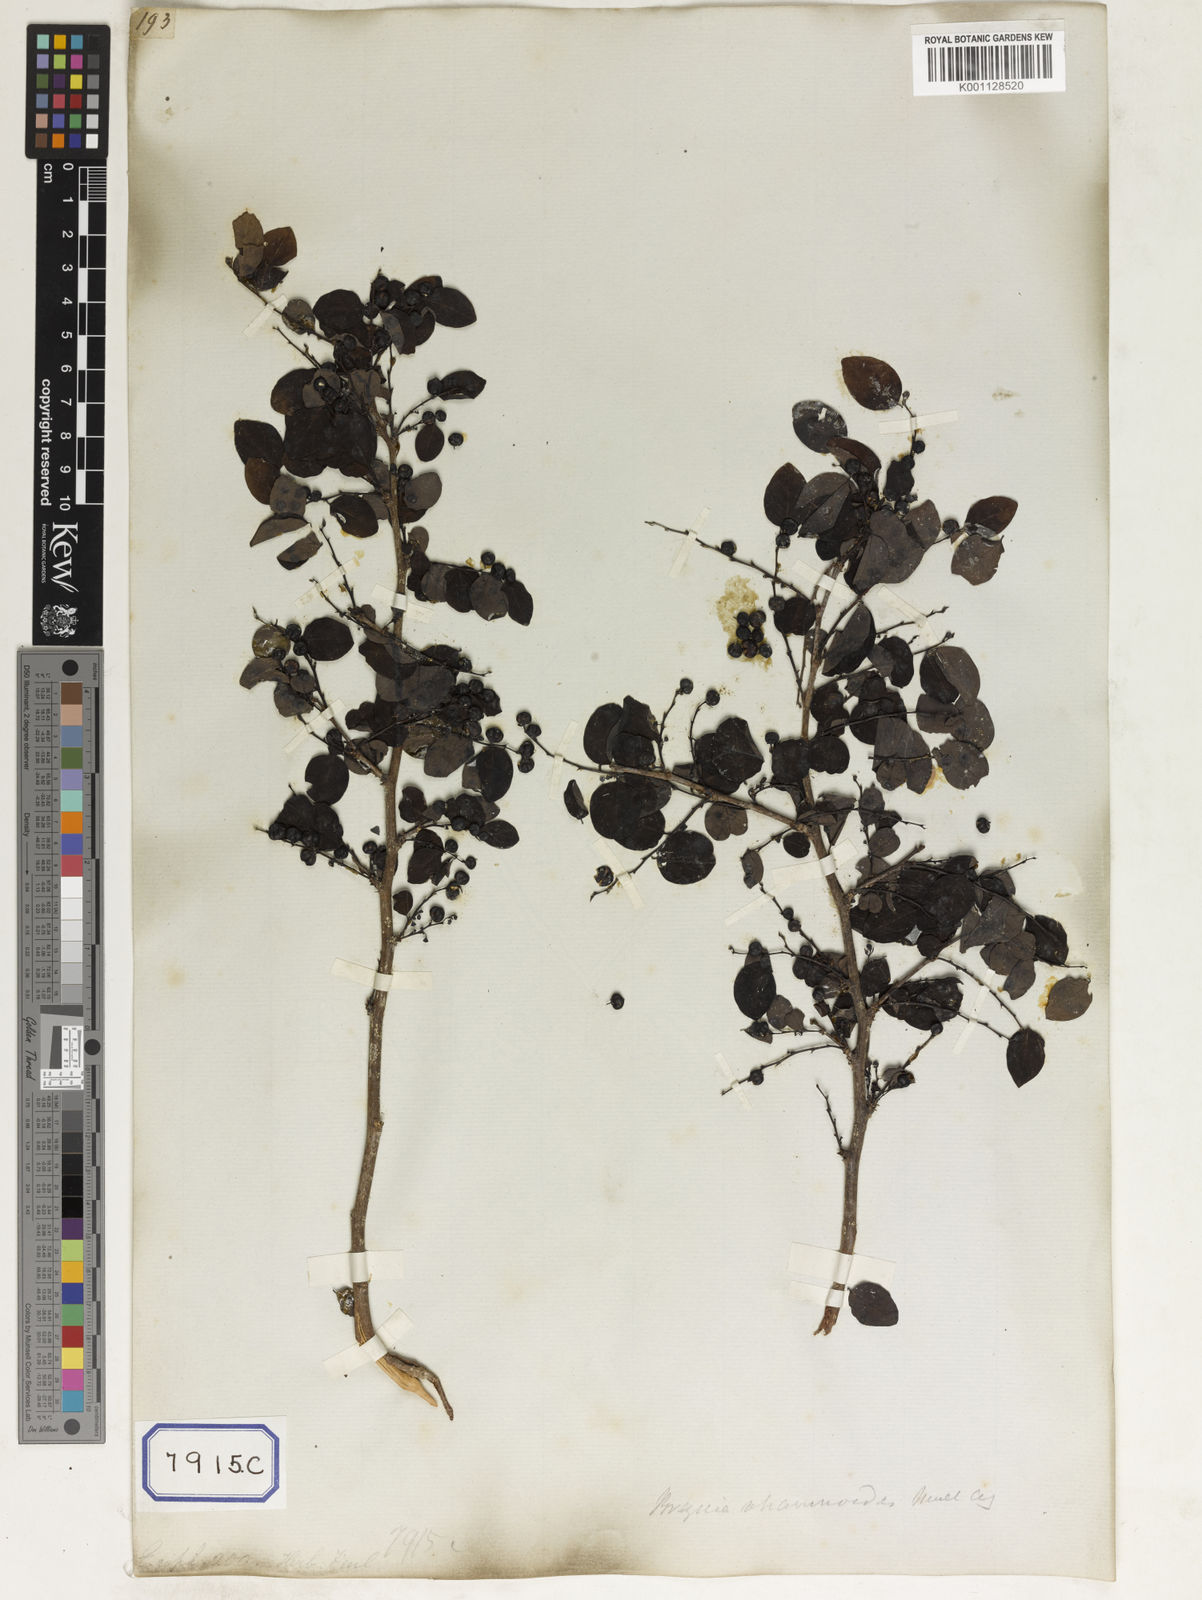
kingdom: Plantae
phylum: Tracheophyta
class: Magnoliopsida
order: Malpighiales
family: Phyllanthaceae
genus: Phyllanthus
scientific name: Phyllanthus
